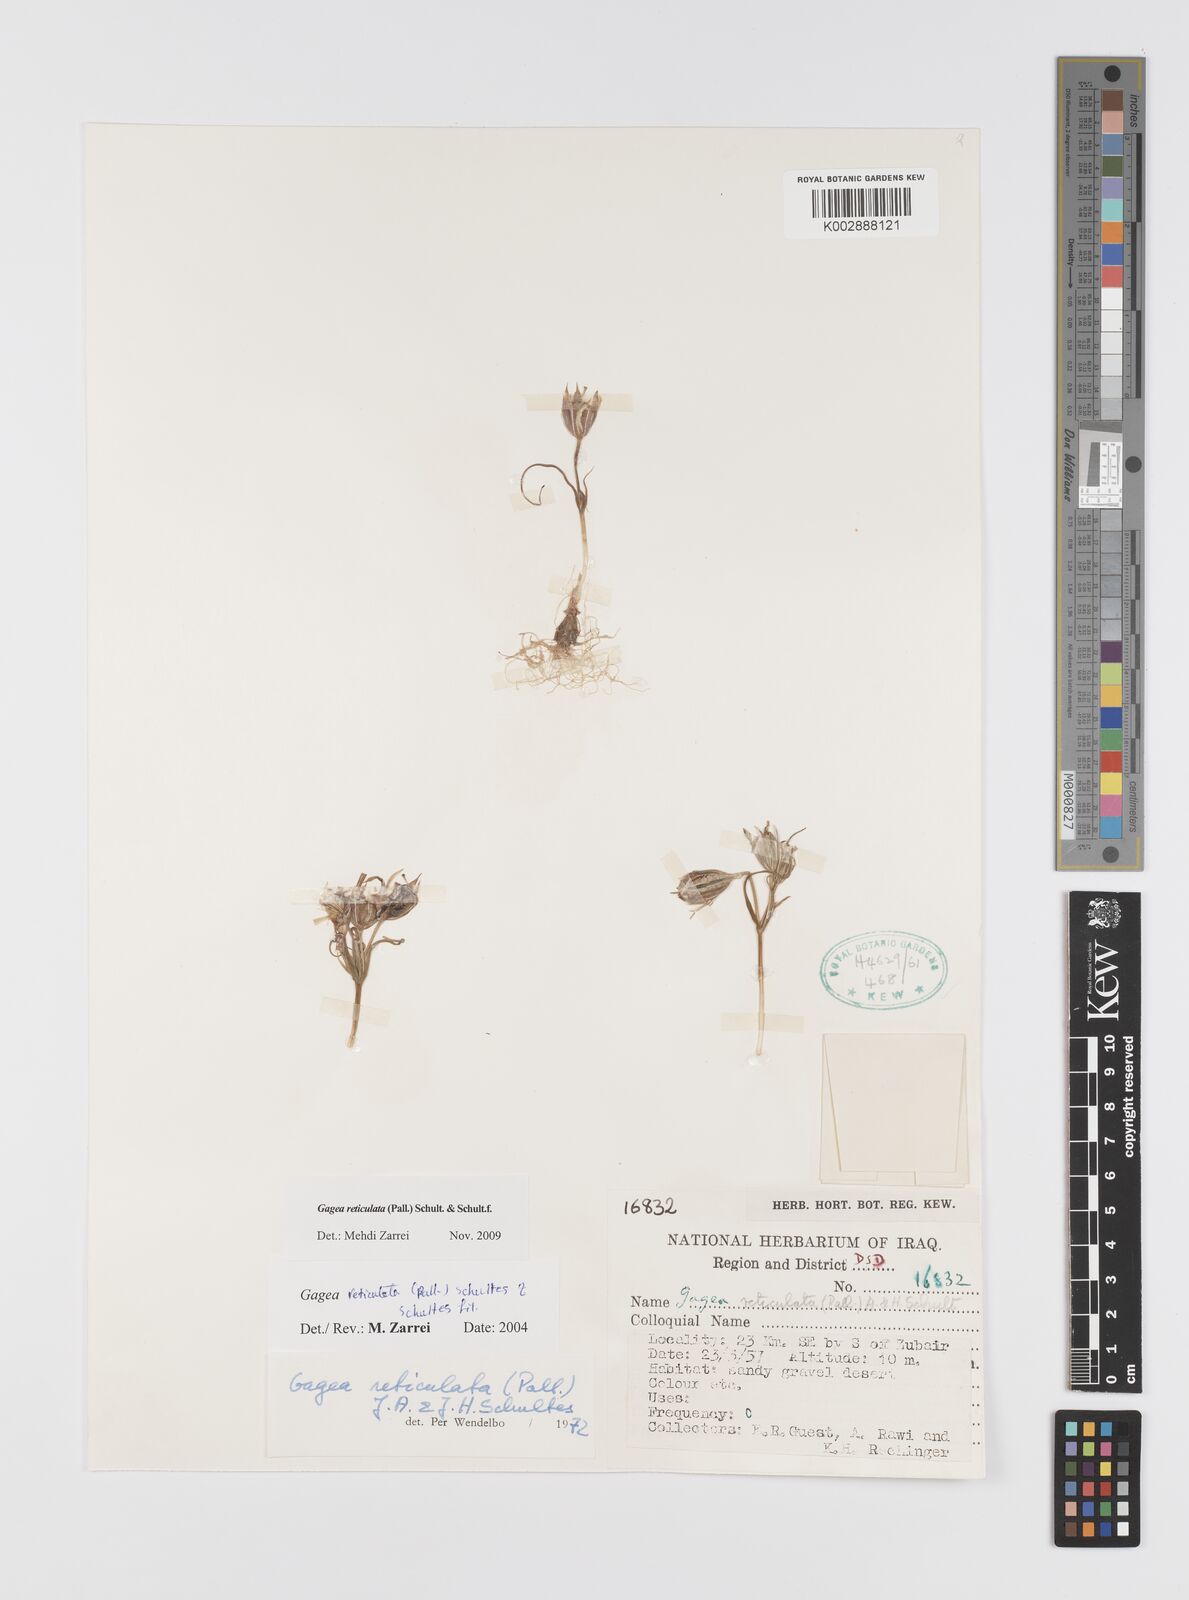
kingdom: Plantae
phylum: Tracheophyta
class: Liliopsida
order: Liliales
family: Liliaceae
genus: Gagea
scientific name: Gagea reticulata
